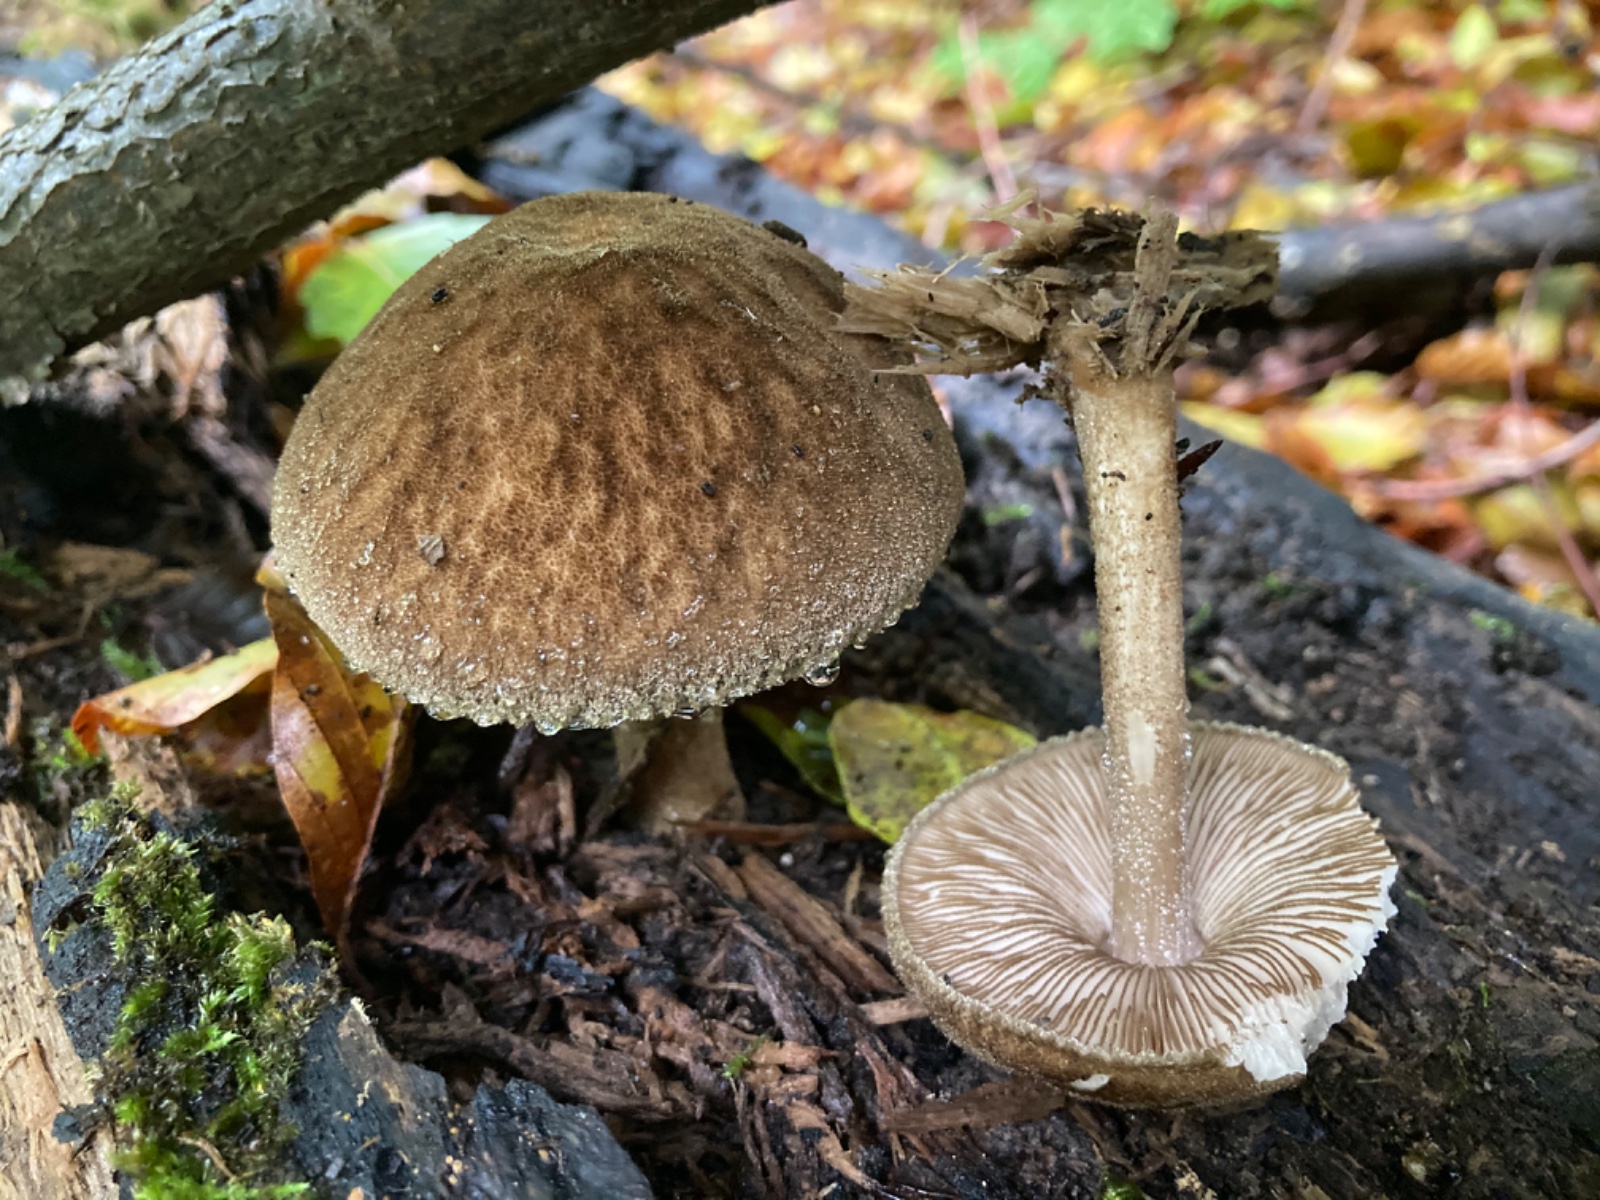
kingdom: Fungi
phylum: Basidiomycota
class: Agaricomycetes
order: Agaricales
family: Pluteaceae
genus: Pluteus
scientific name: Pluteus umbrosus
